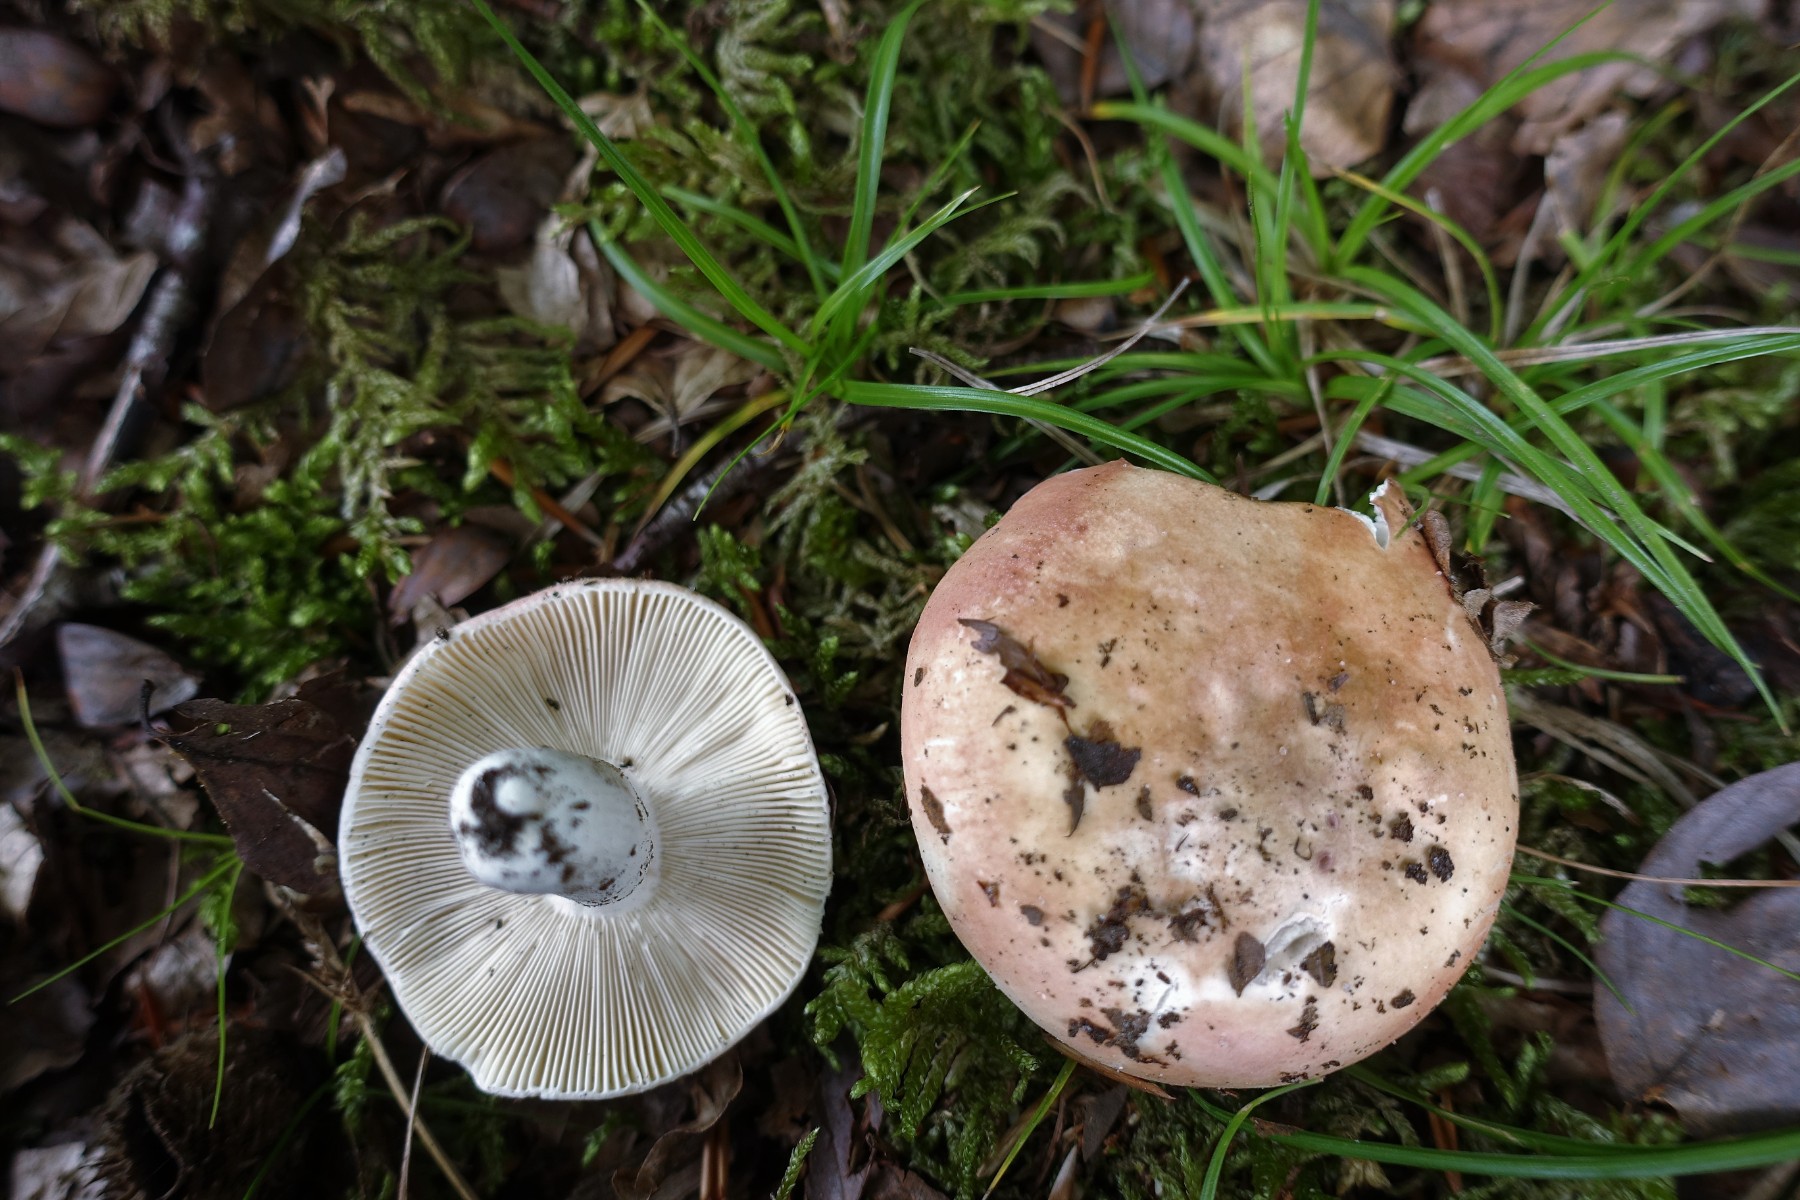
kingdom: Fungi
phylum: Basidiomycota
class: Agaricomycetes
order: Russulales
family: Russulaceae
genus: Russula
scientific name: Russula aurora
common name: rosa skørhat
